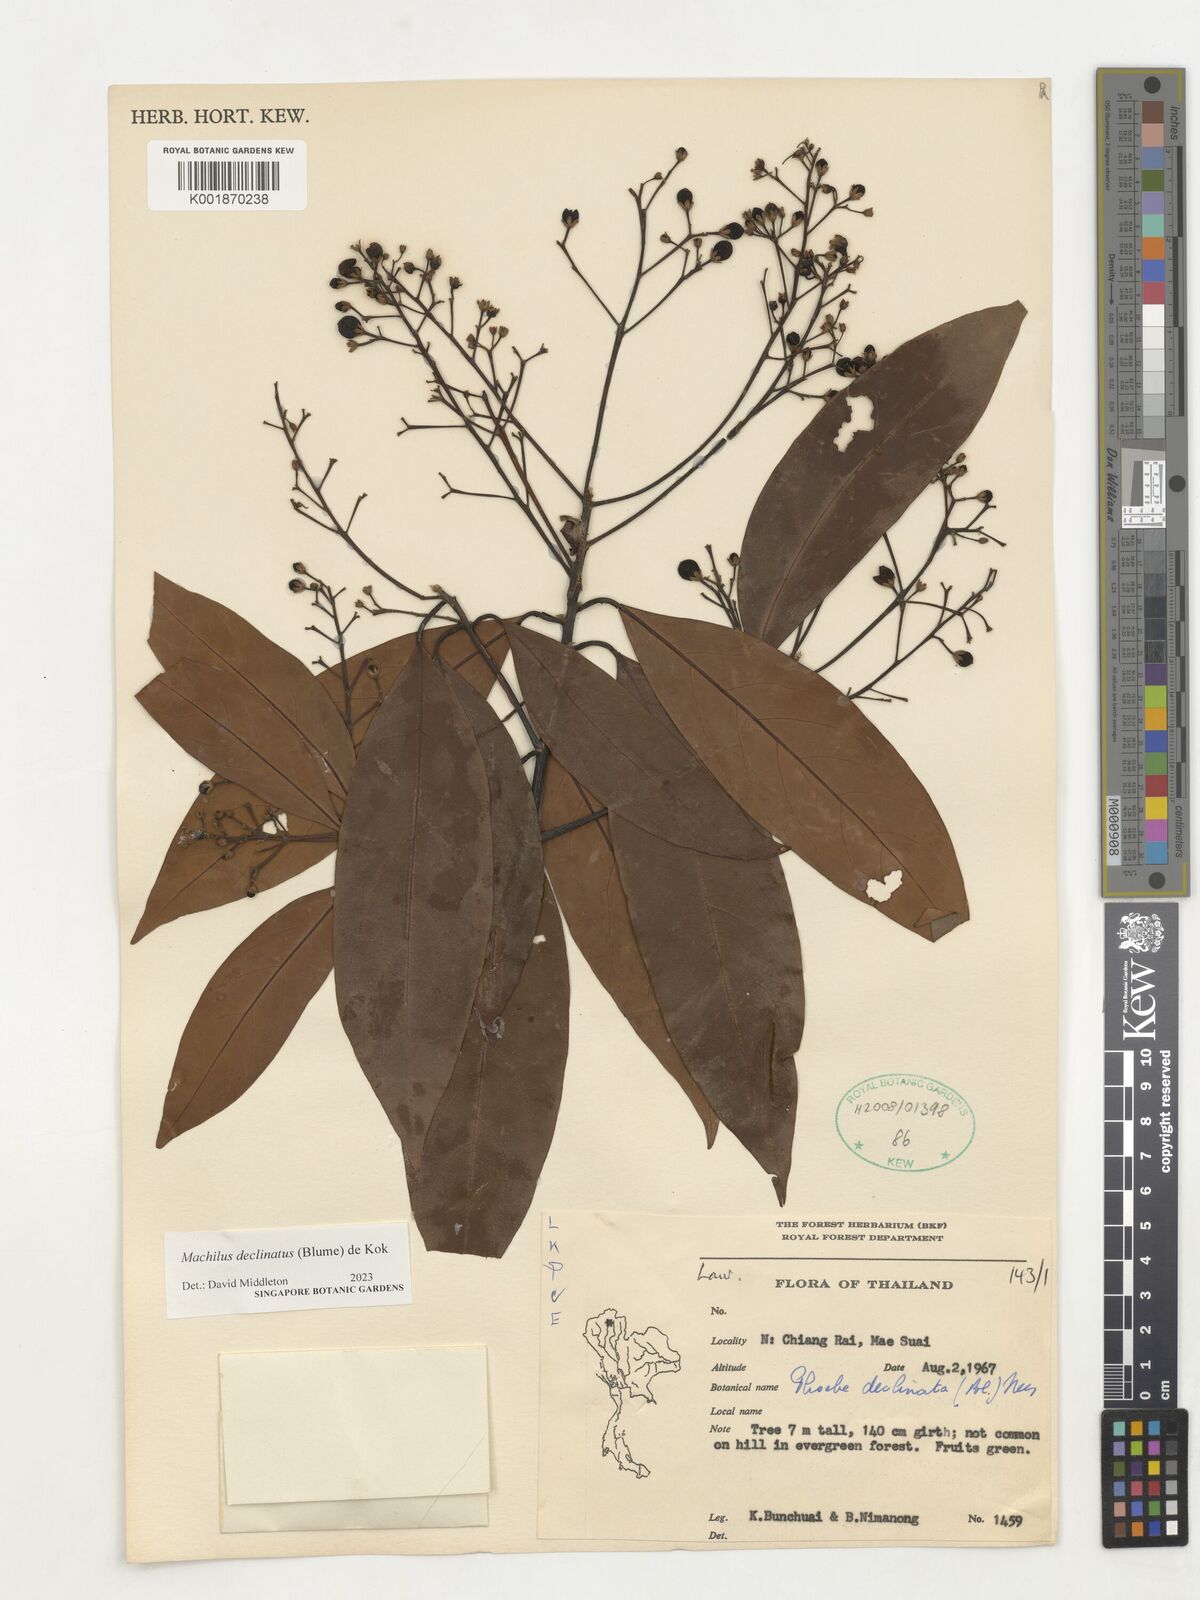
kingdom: Plantae
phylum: Tracheophyta
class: Magnoliopsida
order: Laurales
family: Lauraceae
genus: Machilus
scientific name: Machilus declinata
